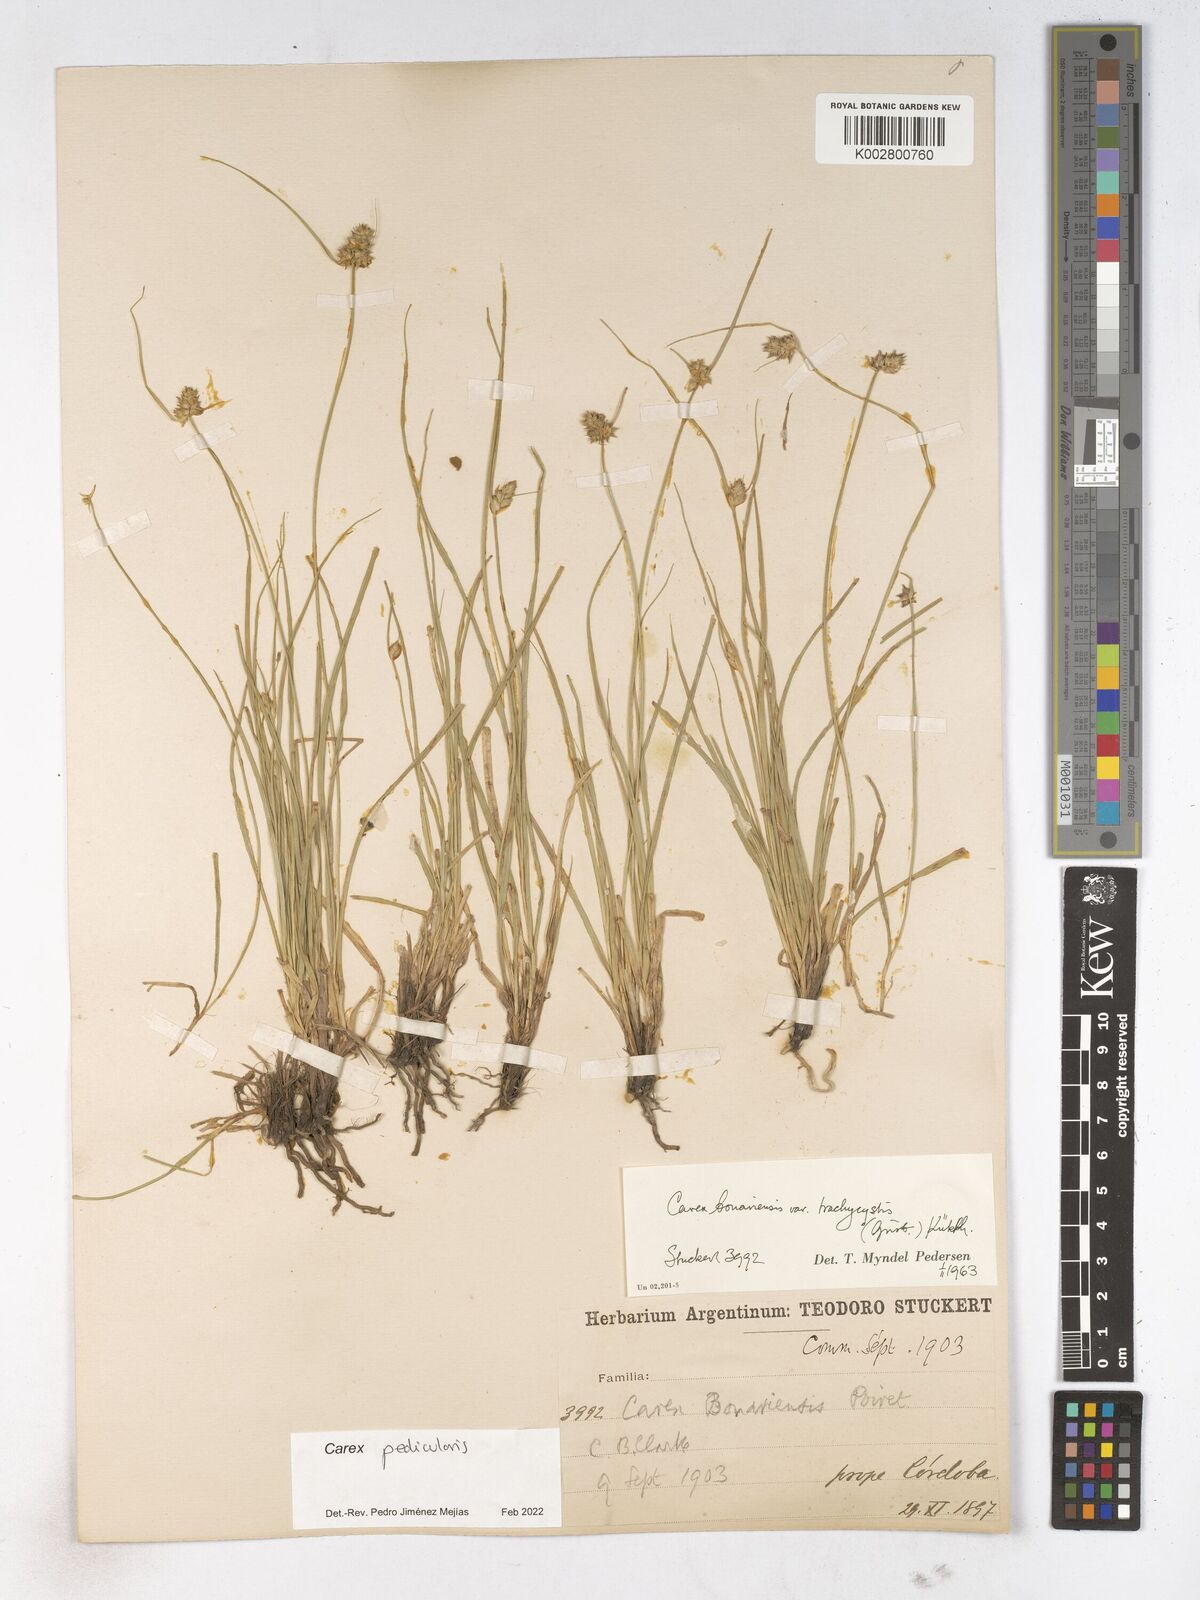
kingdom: Plantae
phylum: Tracheophyta
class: Liliopsida
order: Poales
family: Cyperaceae
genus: Carex
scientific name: Carex bonariensis
